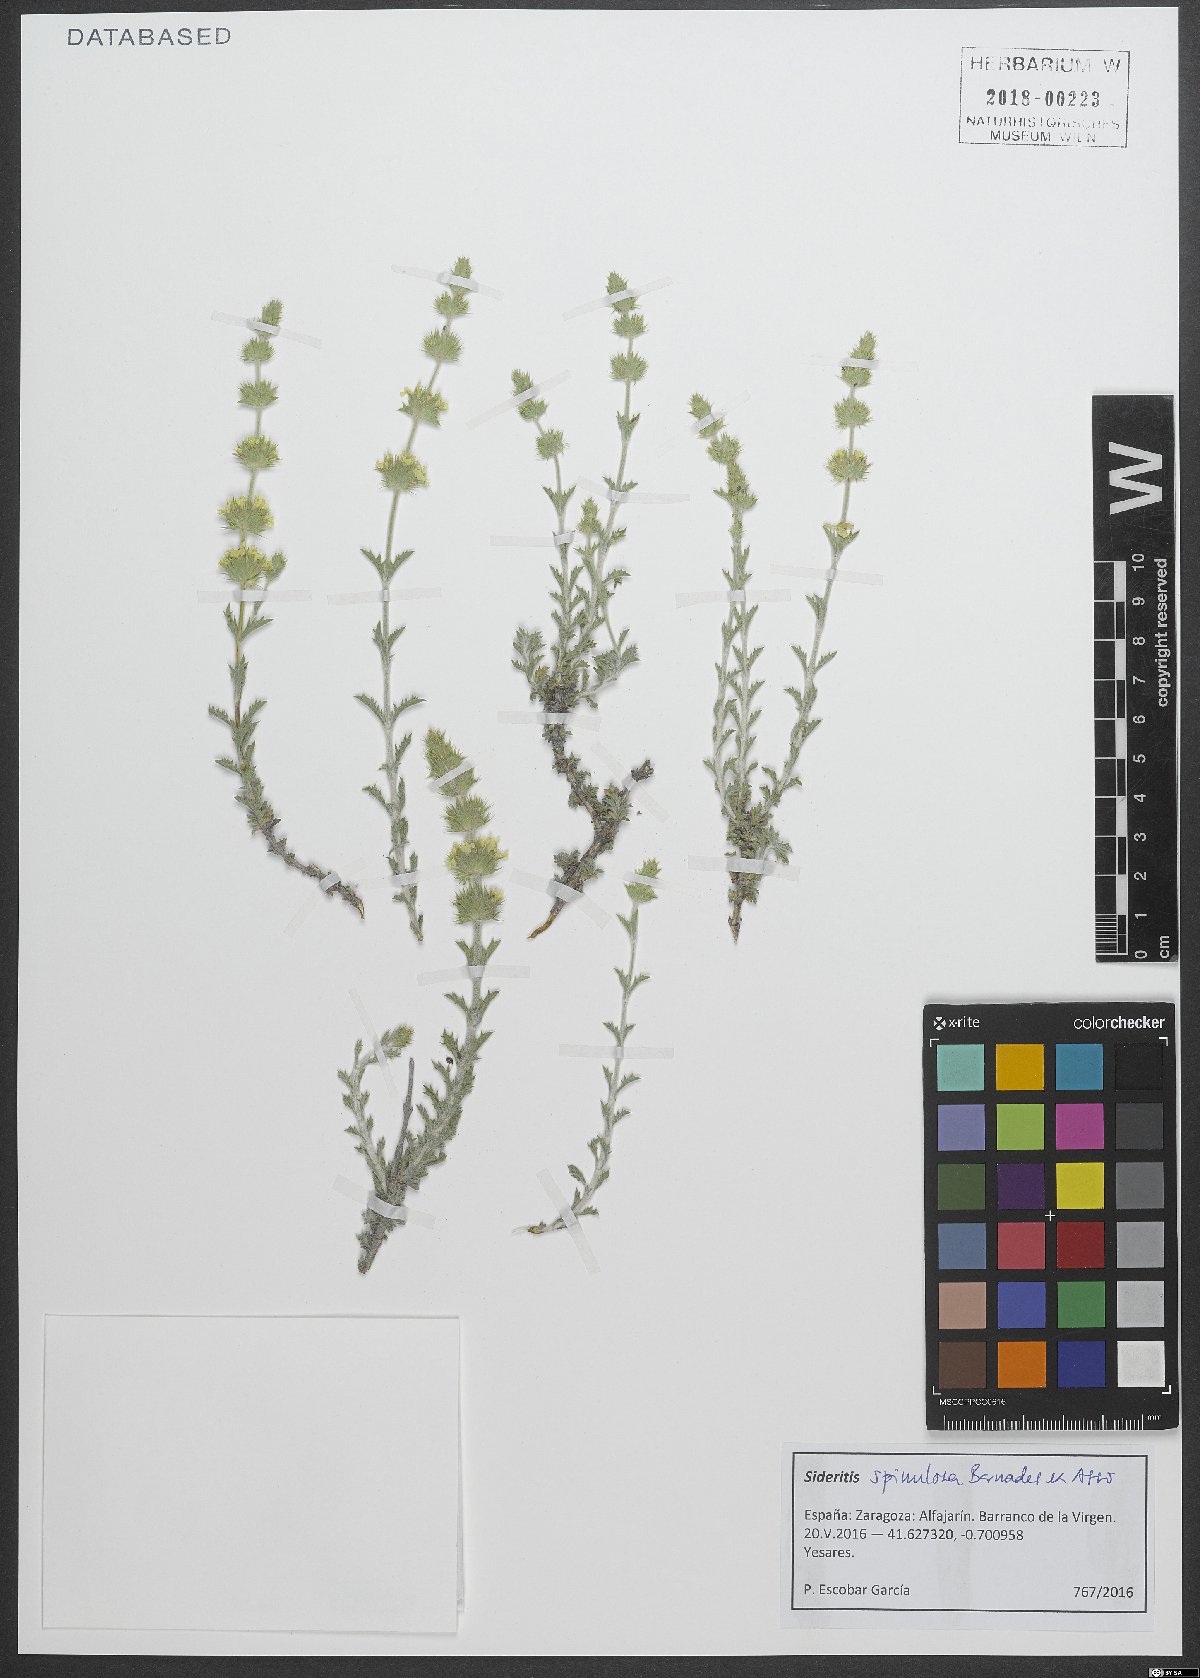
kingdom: Plantae
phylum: Tracheophyta
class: Magnoliopsida
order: Lamiales
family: Lamiaceae
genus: Sideritis
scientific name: Sideritis spinulosa
